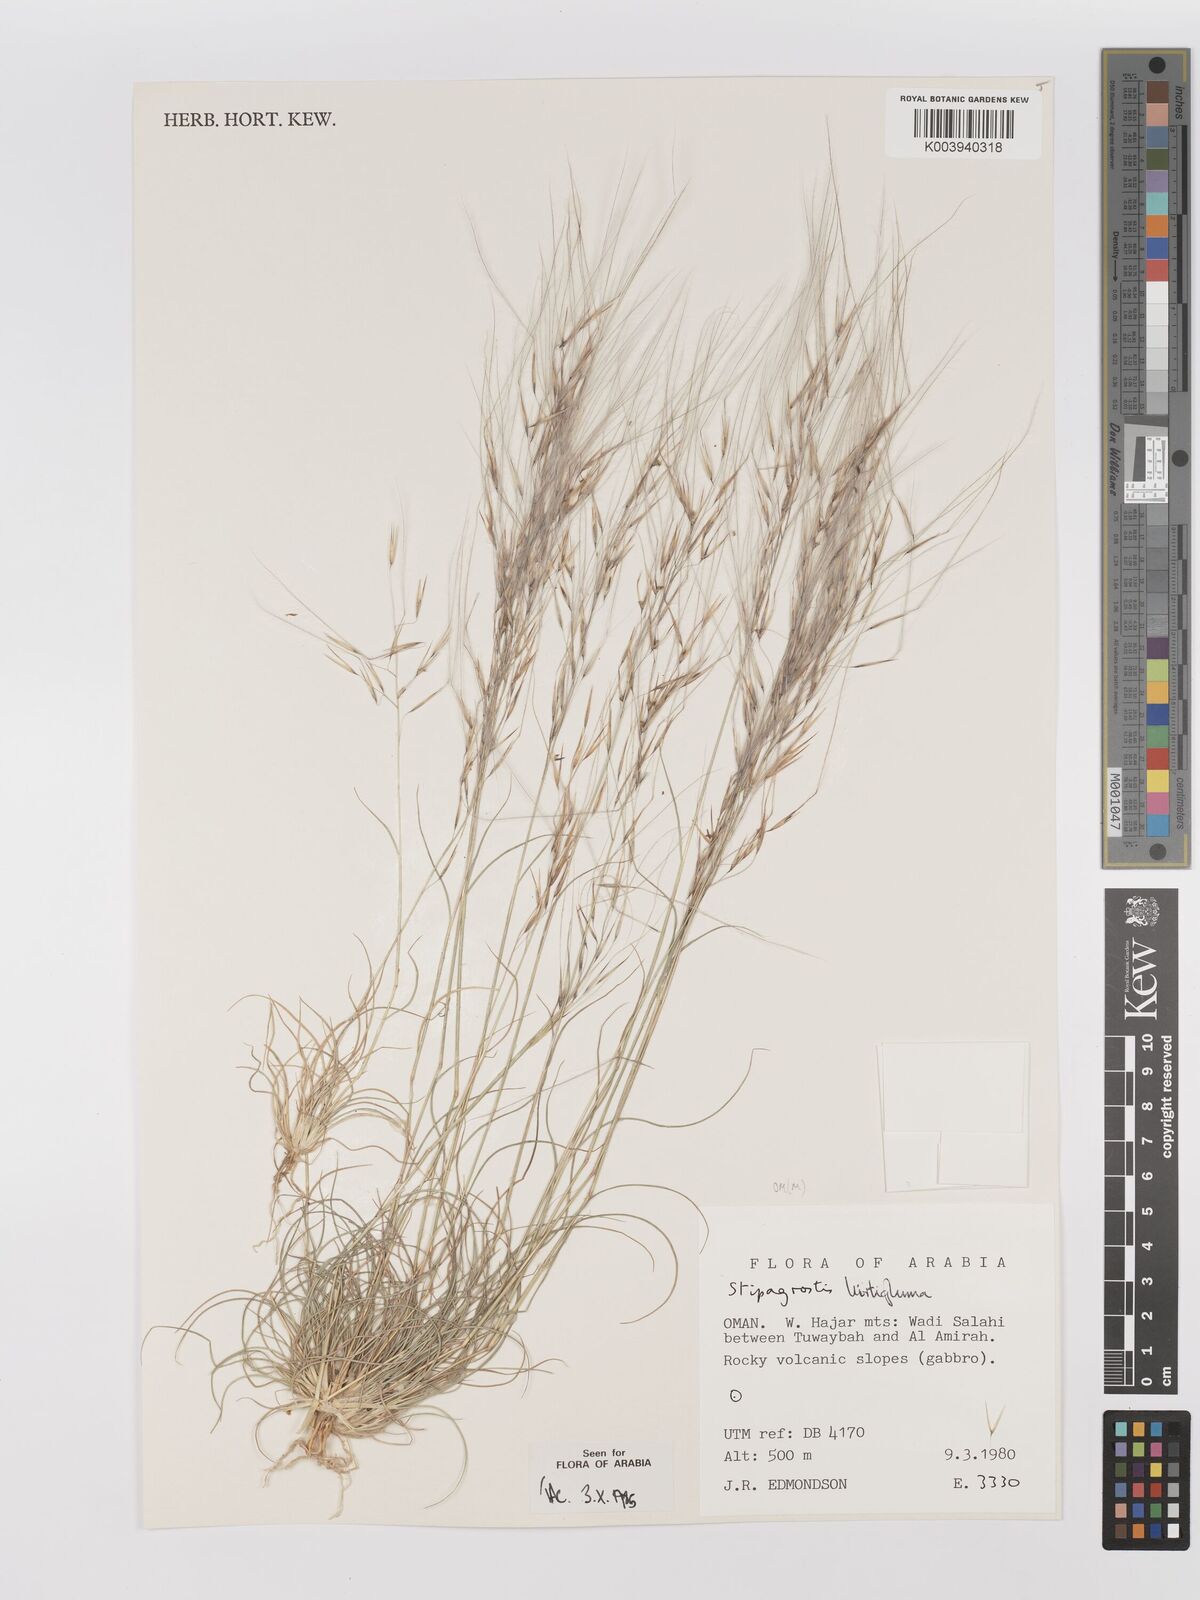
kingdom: Plantae
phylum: Tracheophyta
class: Liliopsida
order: Poales
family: Poaceae
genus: Stipagrostis
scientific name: Stipagrostis hirtigluma
